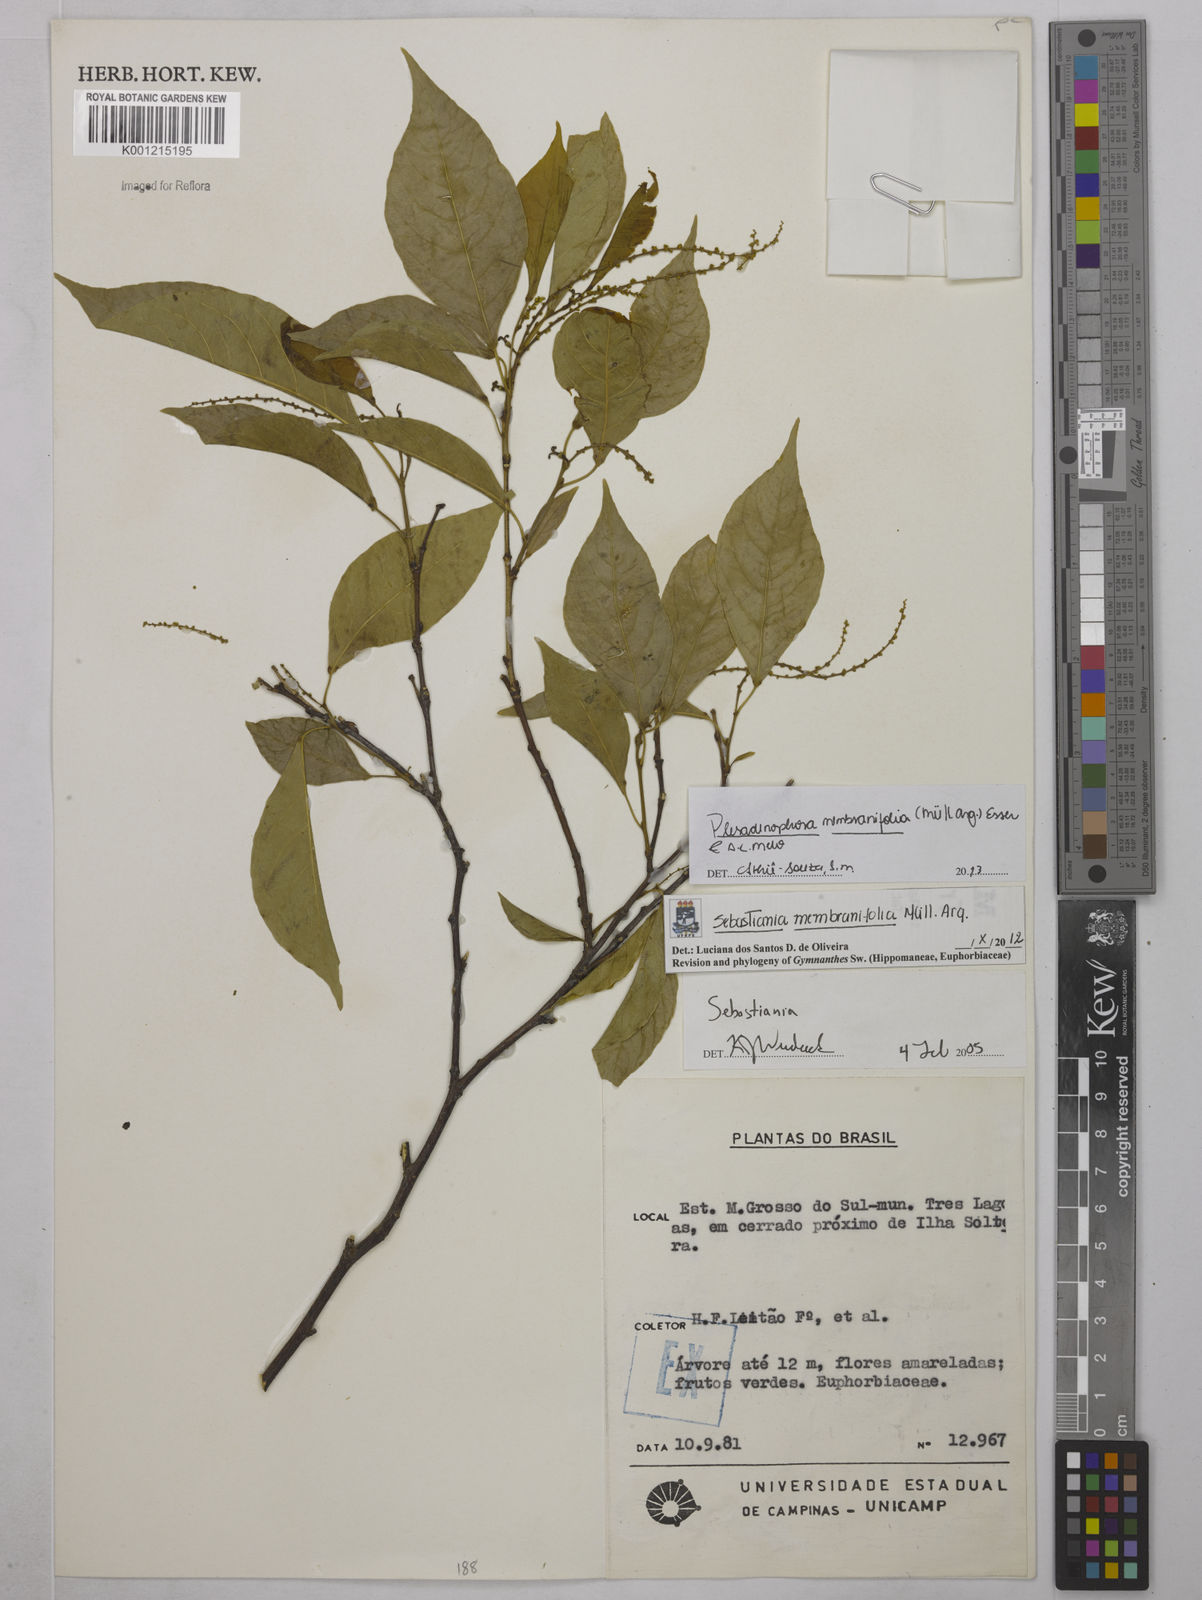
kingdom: Plantae
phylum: Tracheophyta
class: Magnoliopsida
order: Malpighiales
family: Euphorbiaceae
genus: Pleradenophora
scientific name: Pleradenophora
